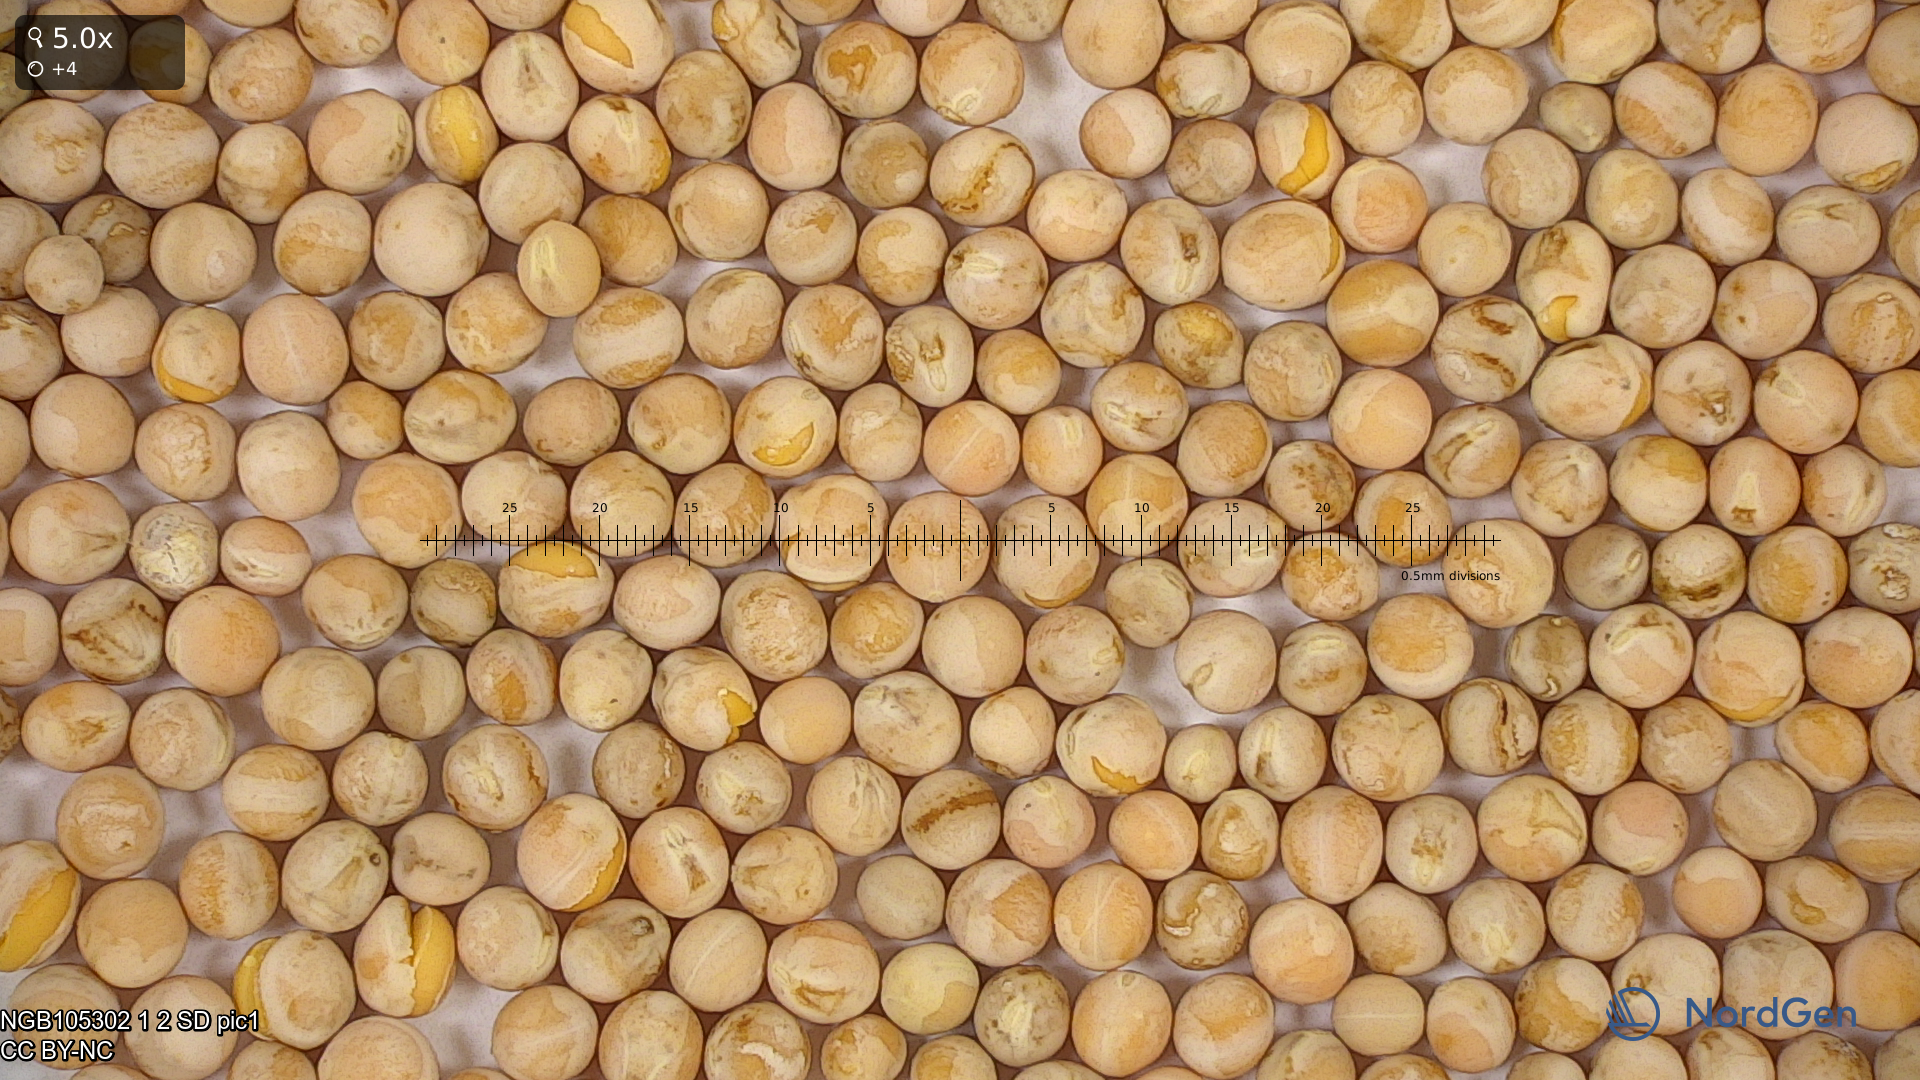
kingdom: Plantae
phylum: Tracheophyta
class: Magnoliopsida
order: Fabales
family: Fabaceae
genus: Lathyrus
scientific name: Lathyrus oleraceus
